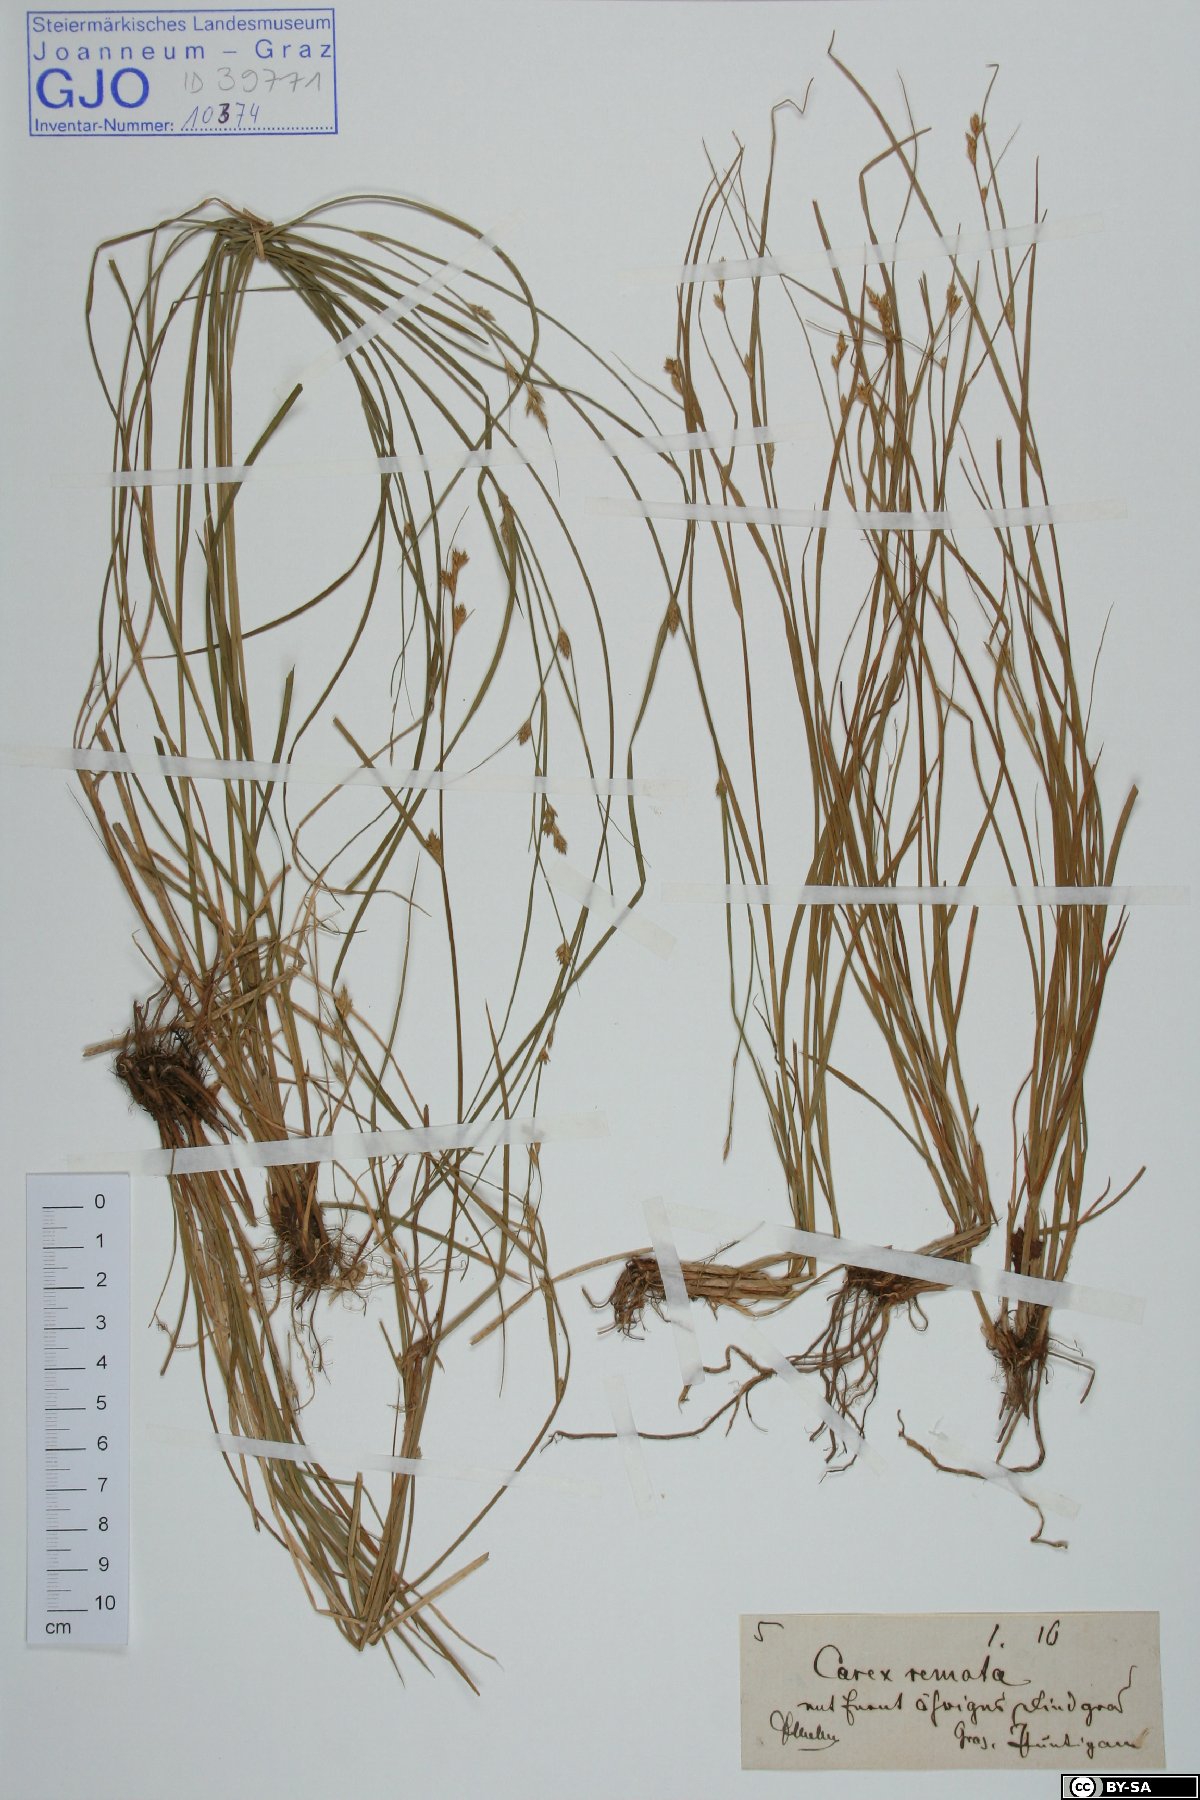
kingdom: Plantae
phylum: Tracheophyta
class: Liliopsida
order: Poales
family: Cyperaceae
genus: Carex
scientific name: Carex remota
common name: Remote sedge
